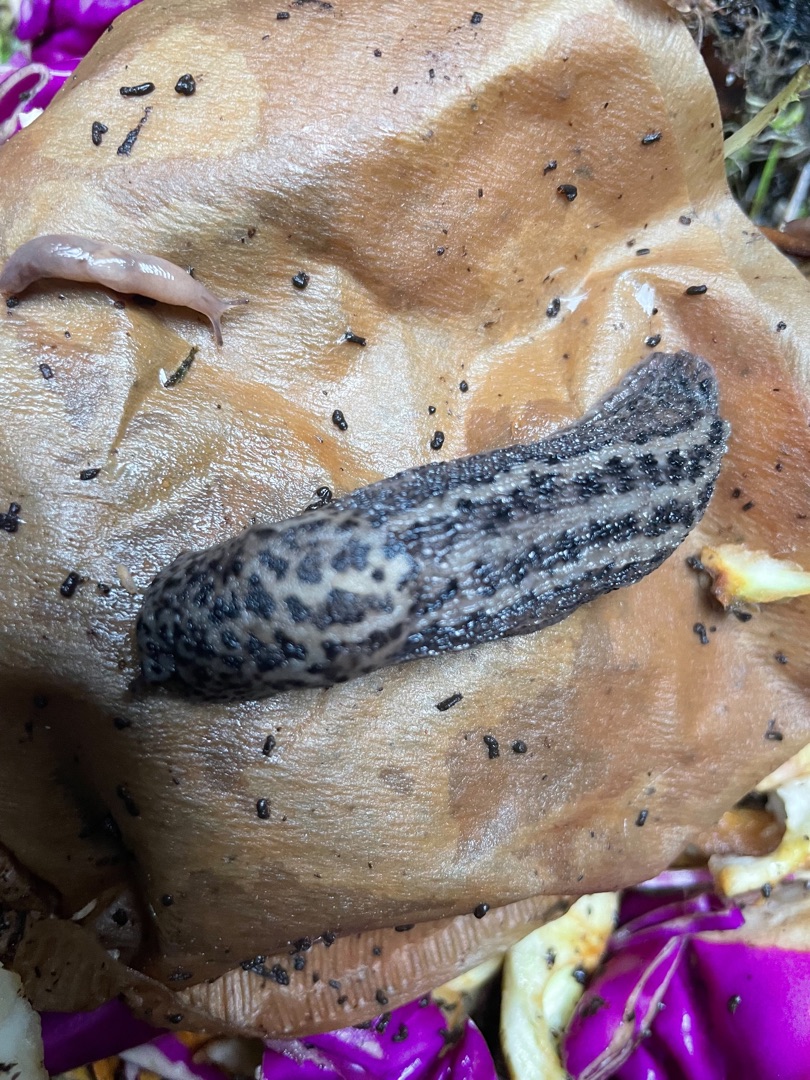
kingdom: Animalia
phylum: Mollusca
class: Gastropoda
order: Stylommatophora
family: Limacidae
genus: Limax
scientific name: Limax maximus
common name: Pantersnegl
